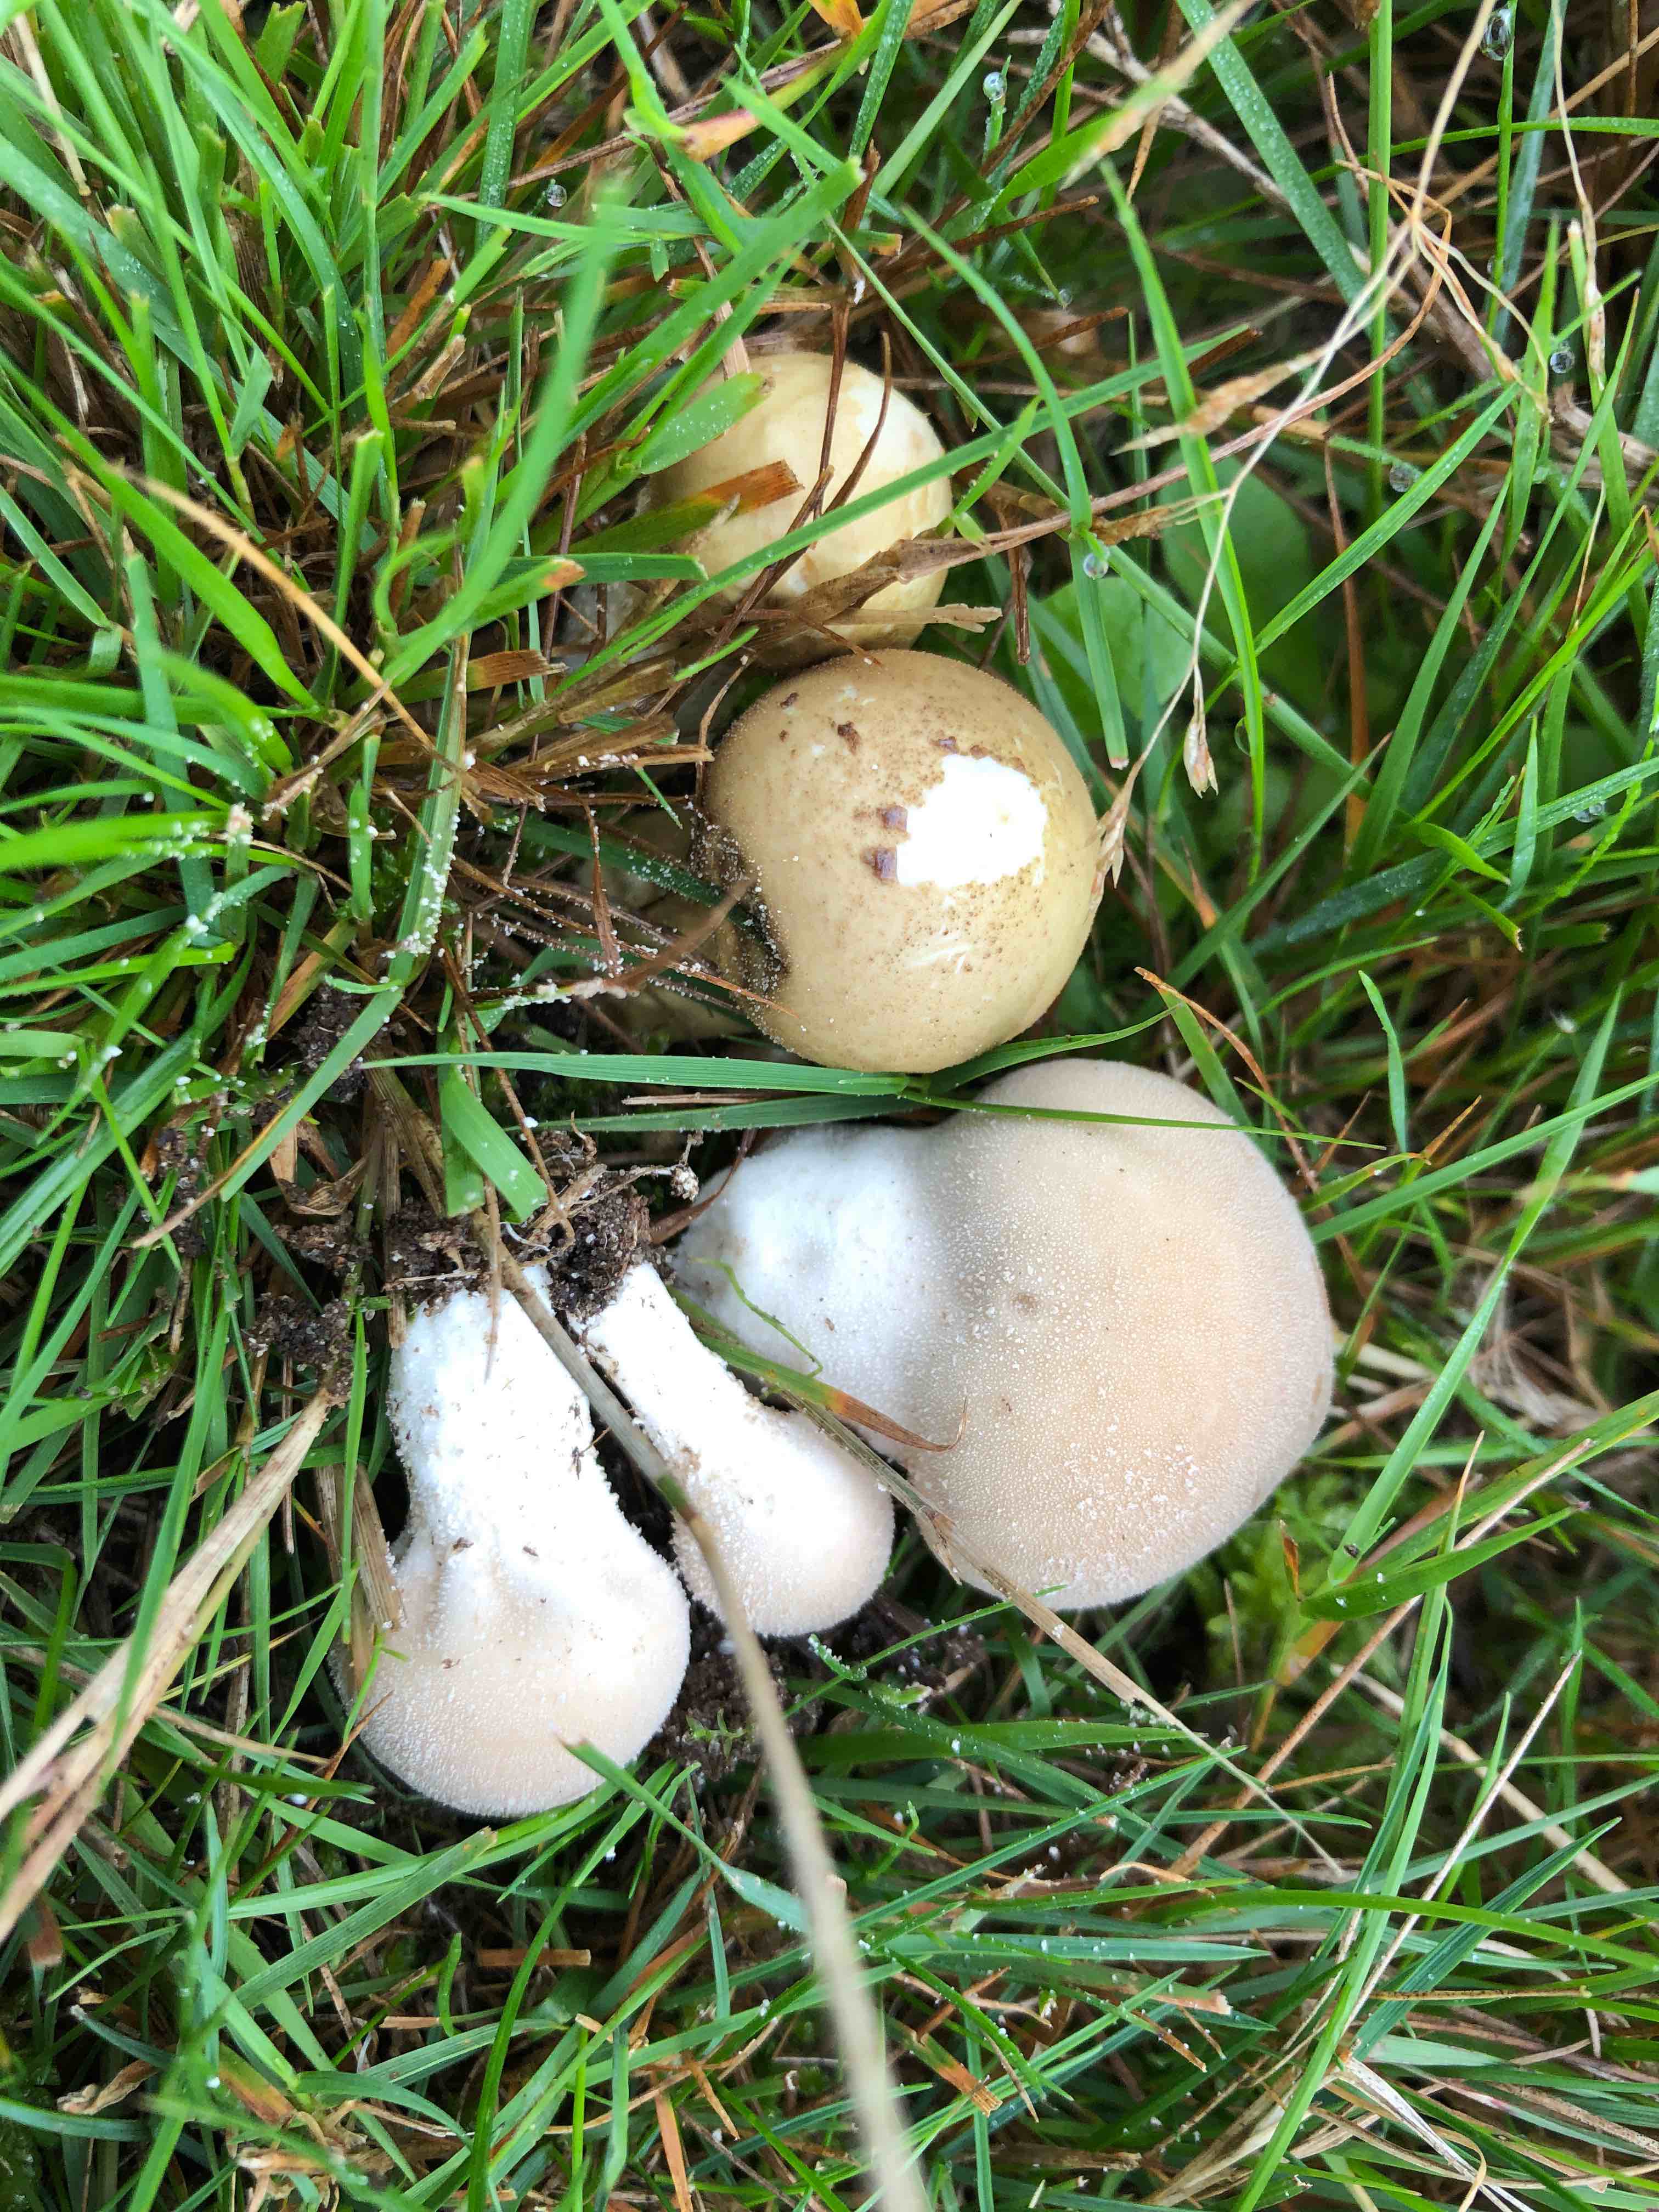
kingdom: Fungi
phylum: Basidiomycota
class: Agaricomycetes
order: Agaricales
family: Lycoperdaceae
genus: Lycoperdon
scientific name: Lycoperdon lividum
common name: mark-støvbold
